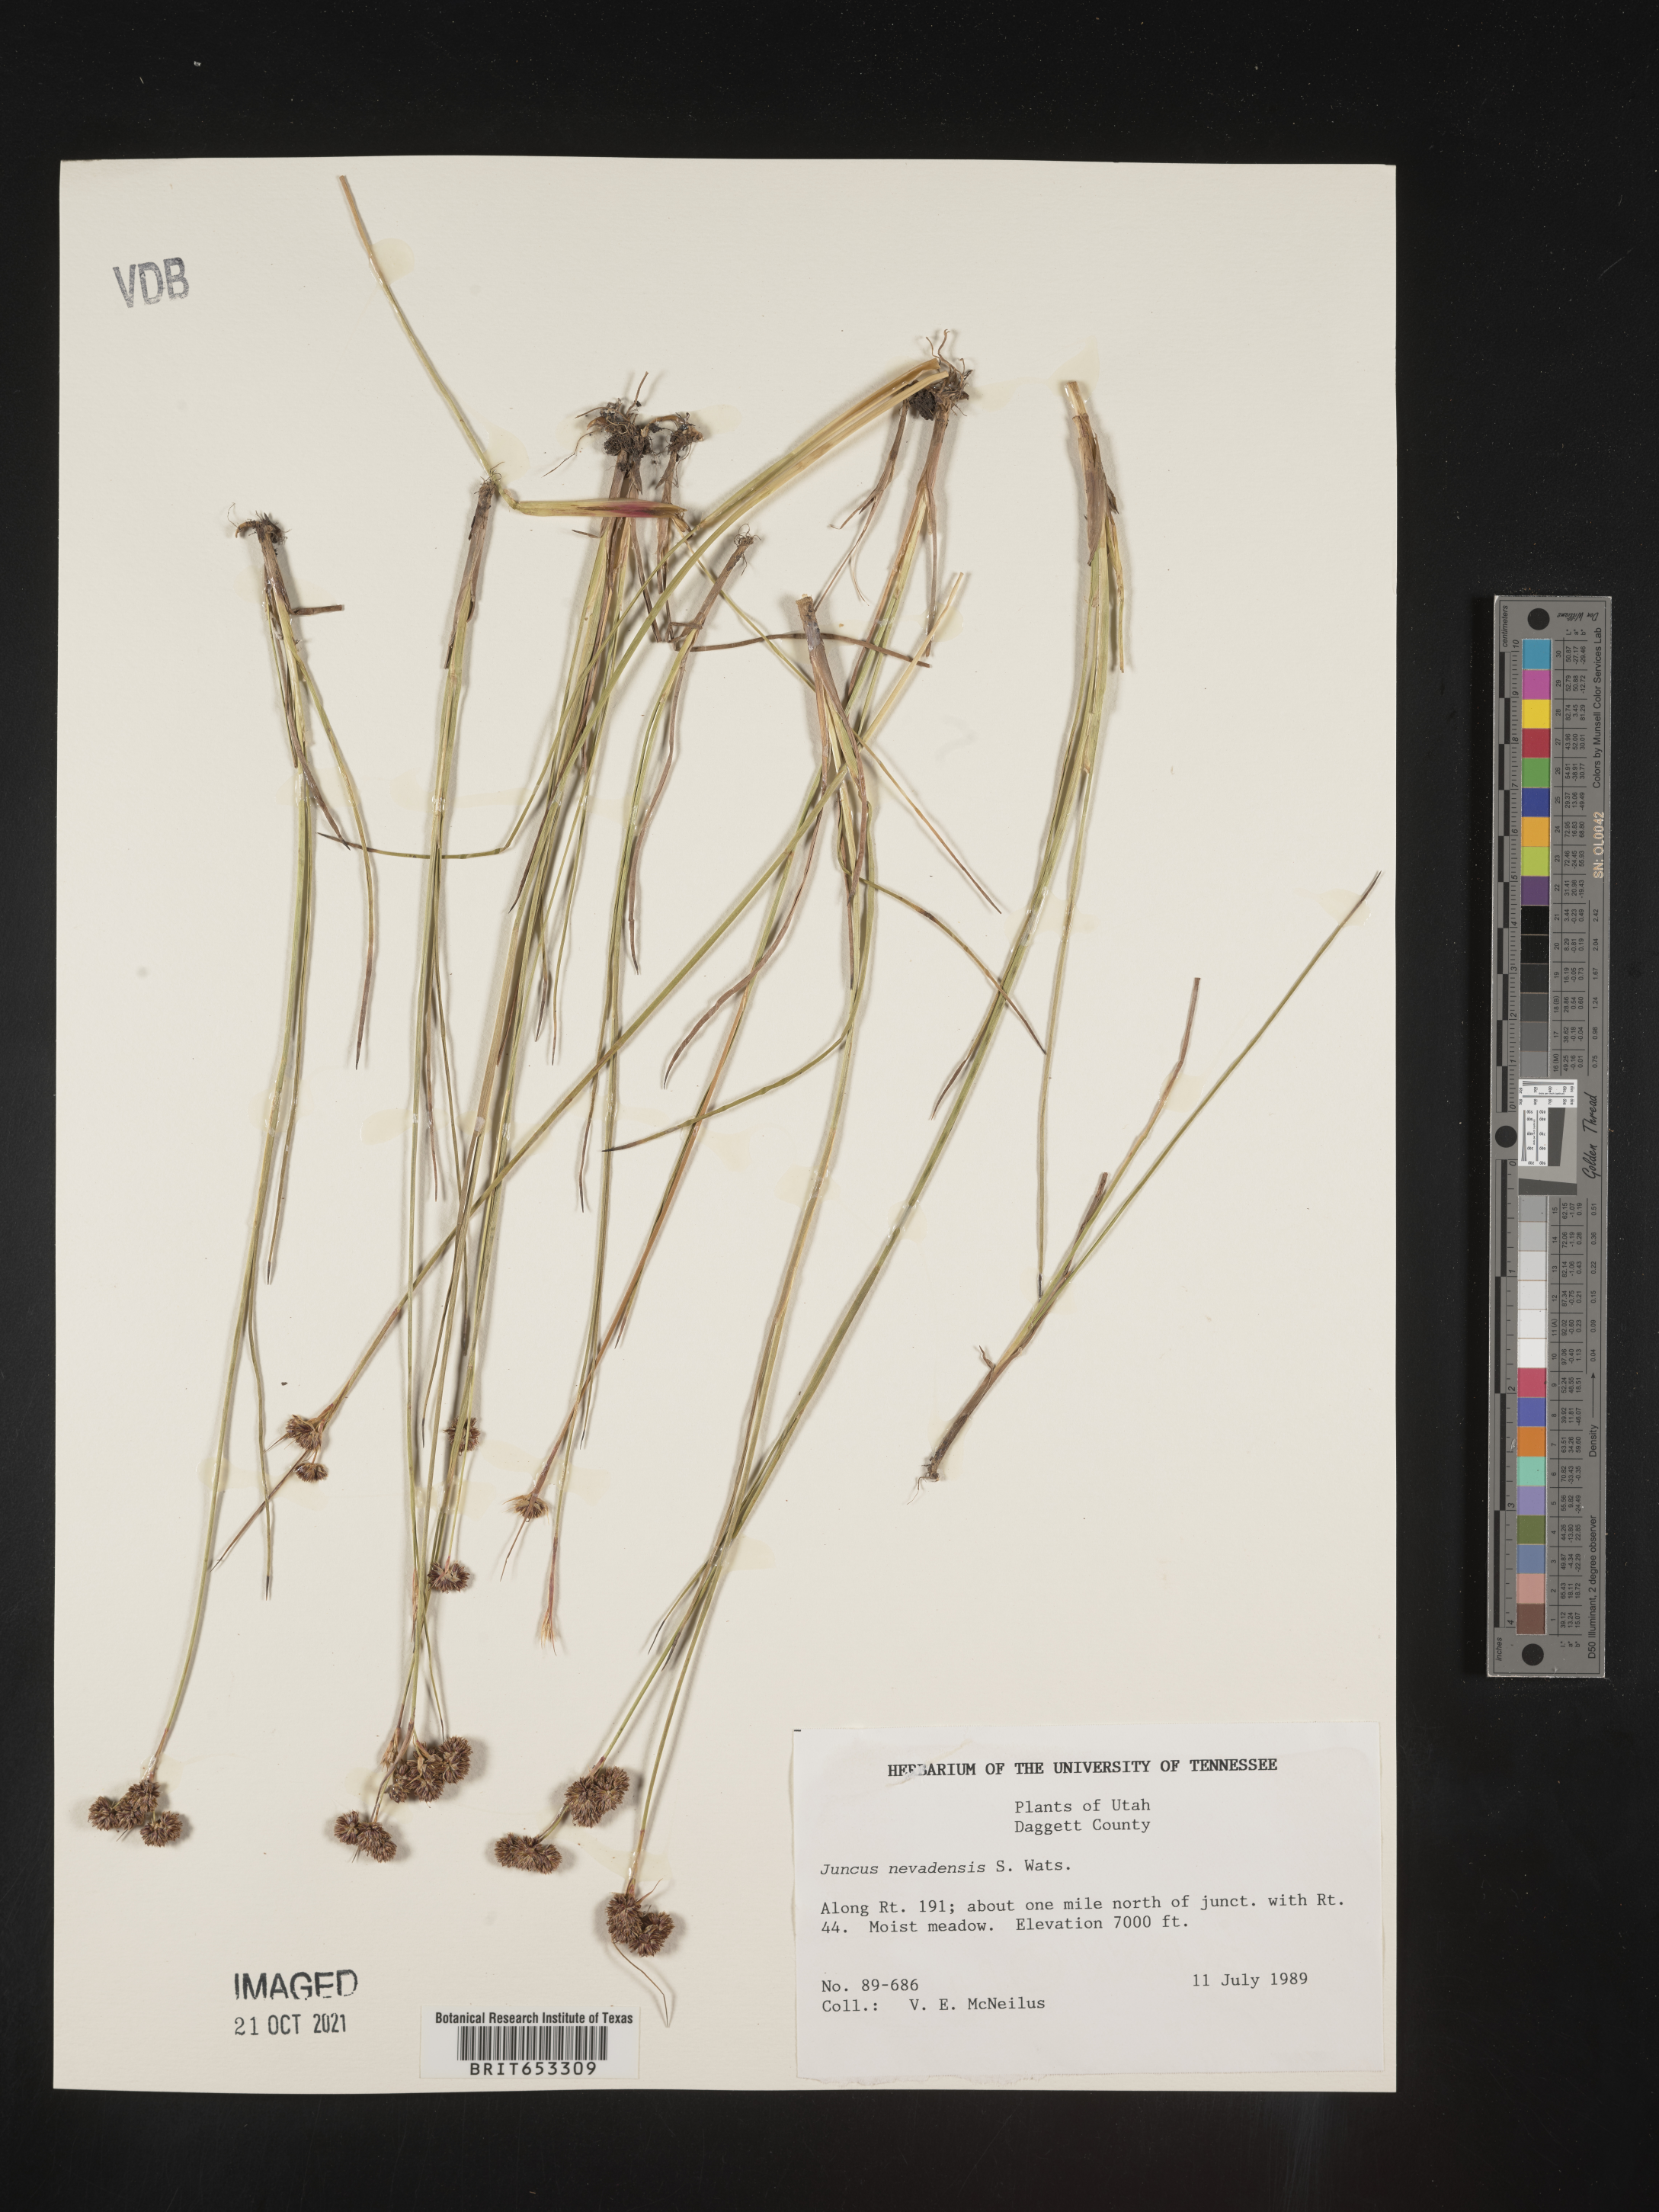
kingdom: Plantae
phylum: Tracheophyta
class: Liliopsida
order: Poales
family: Juncaceae
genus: Juncus
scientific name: Juncus nevadensis
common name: Nevada rush
